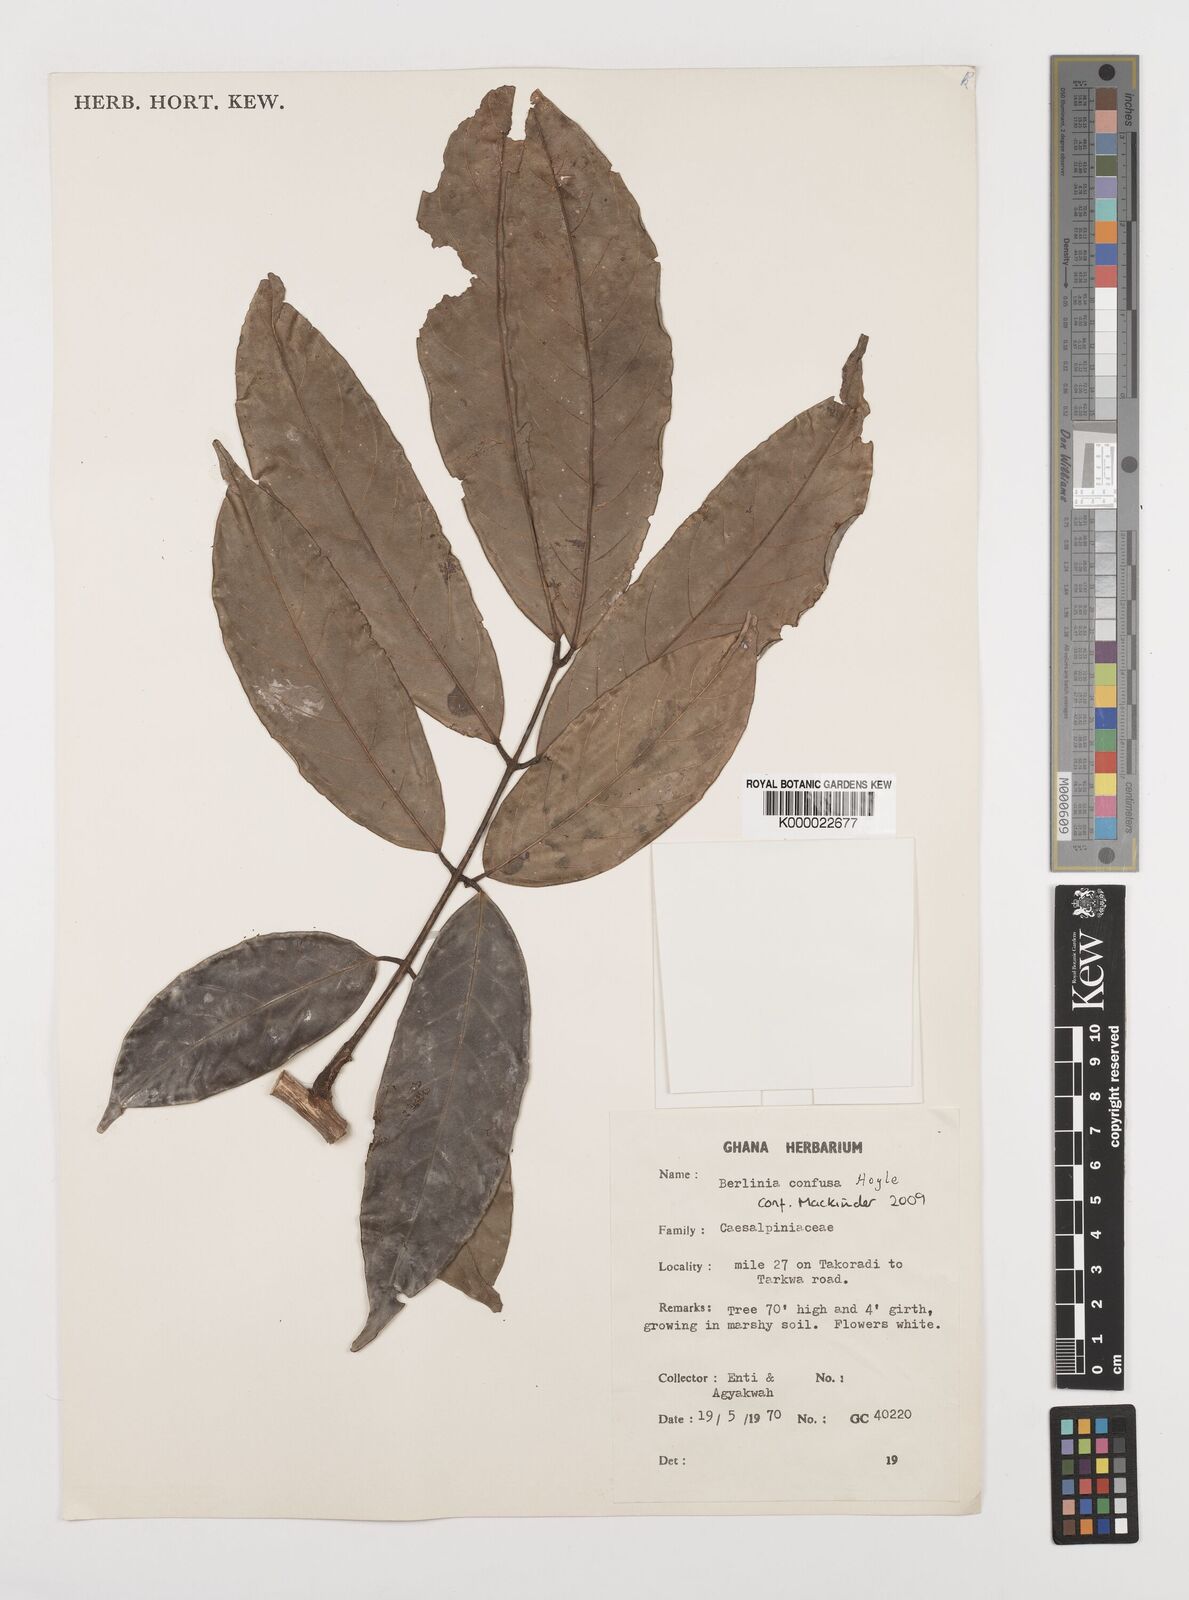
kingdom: Plantae
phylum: Tracheophyta
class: Magnoliopsida
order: Fabales
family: Fabaceae
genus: Berlinia
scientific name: Berlinia tomentella
